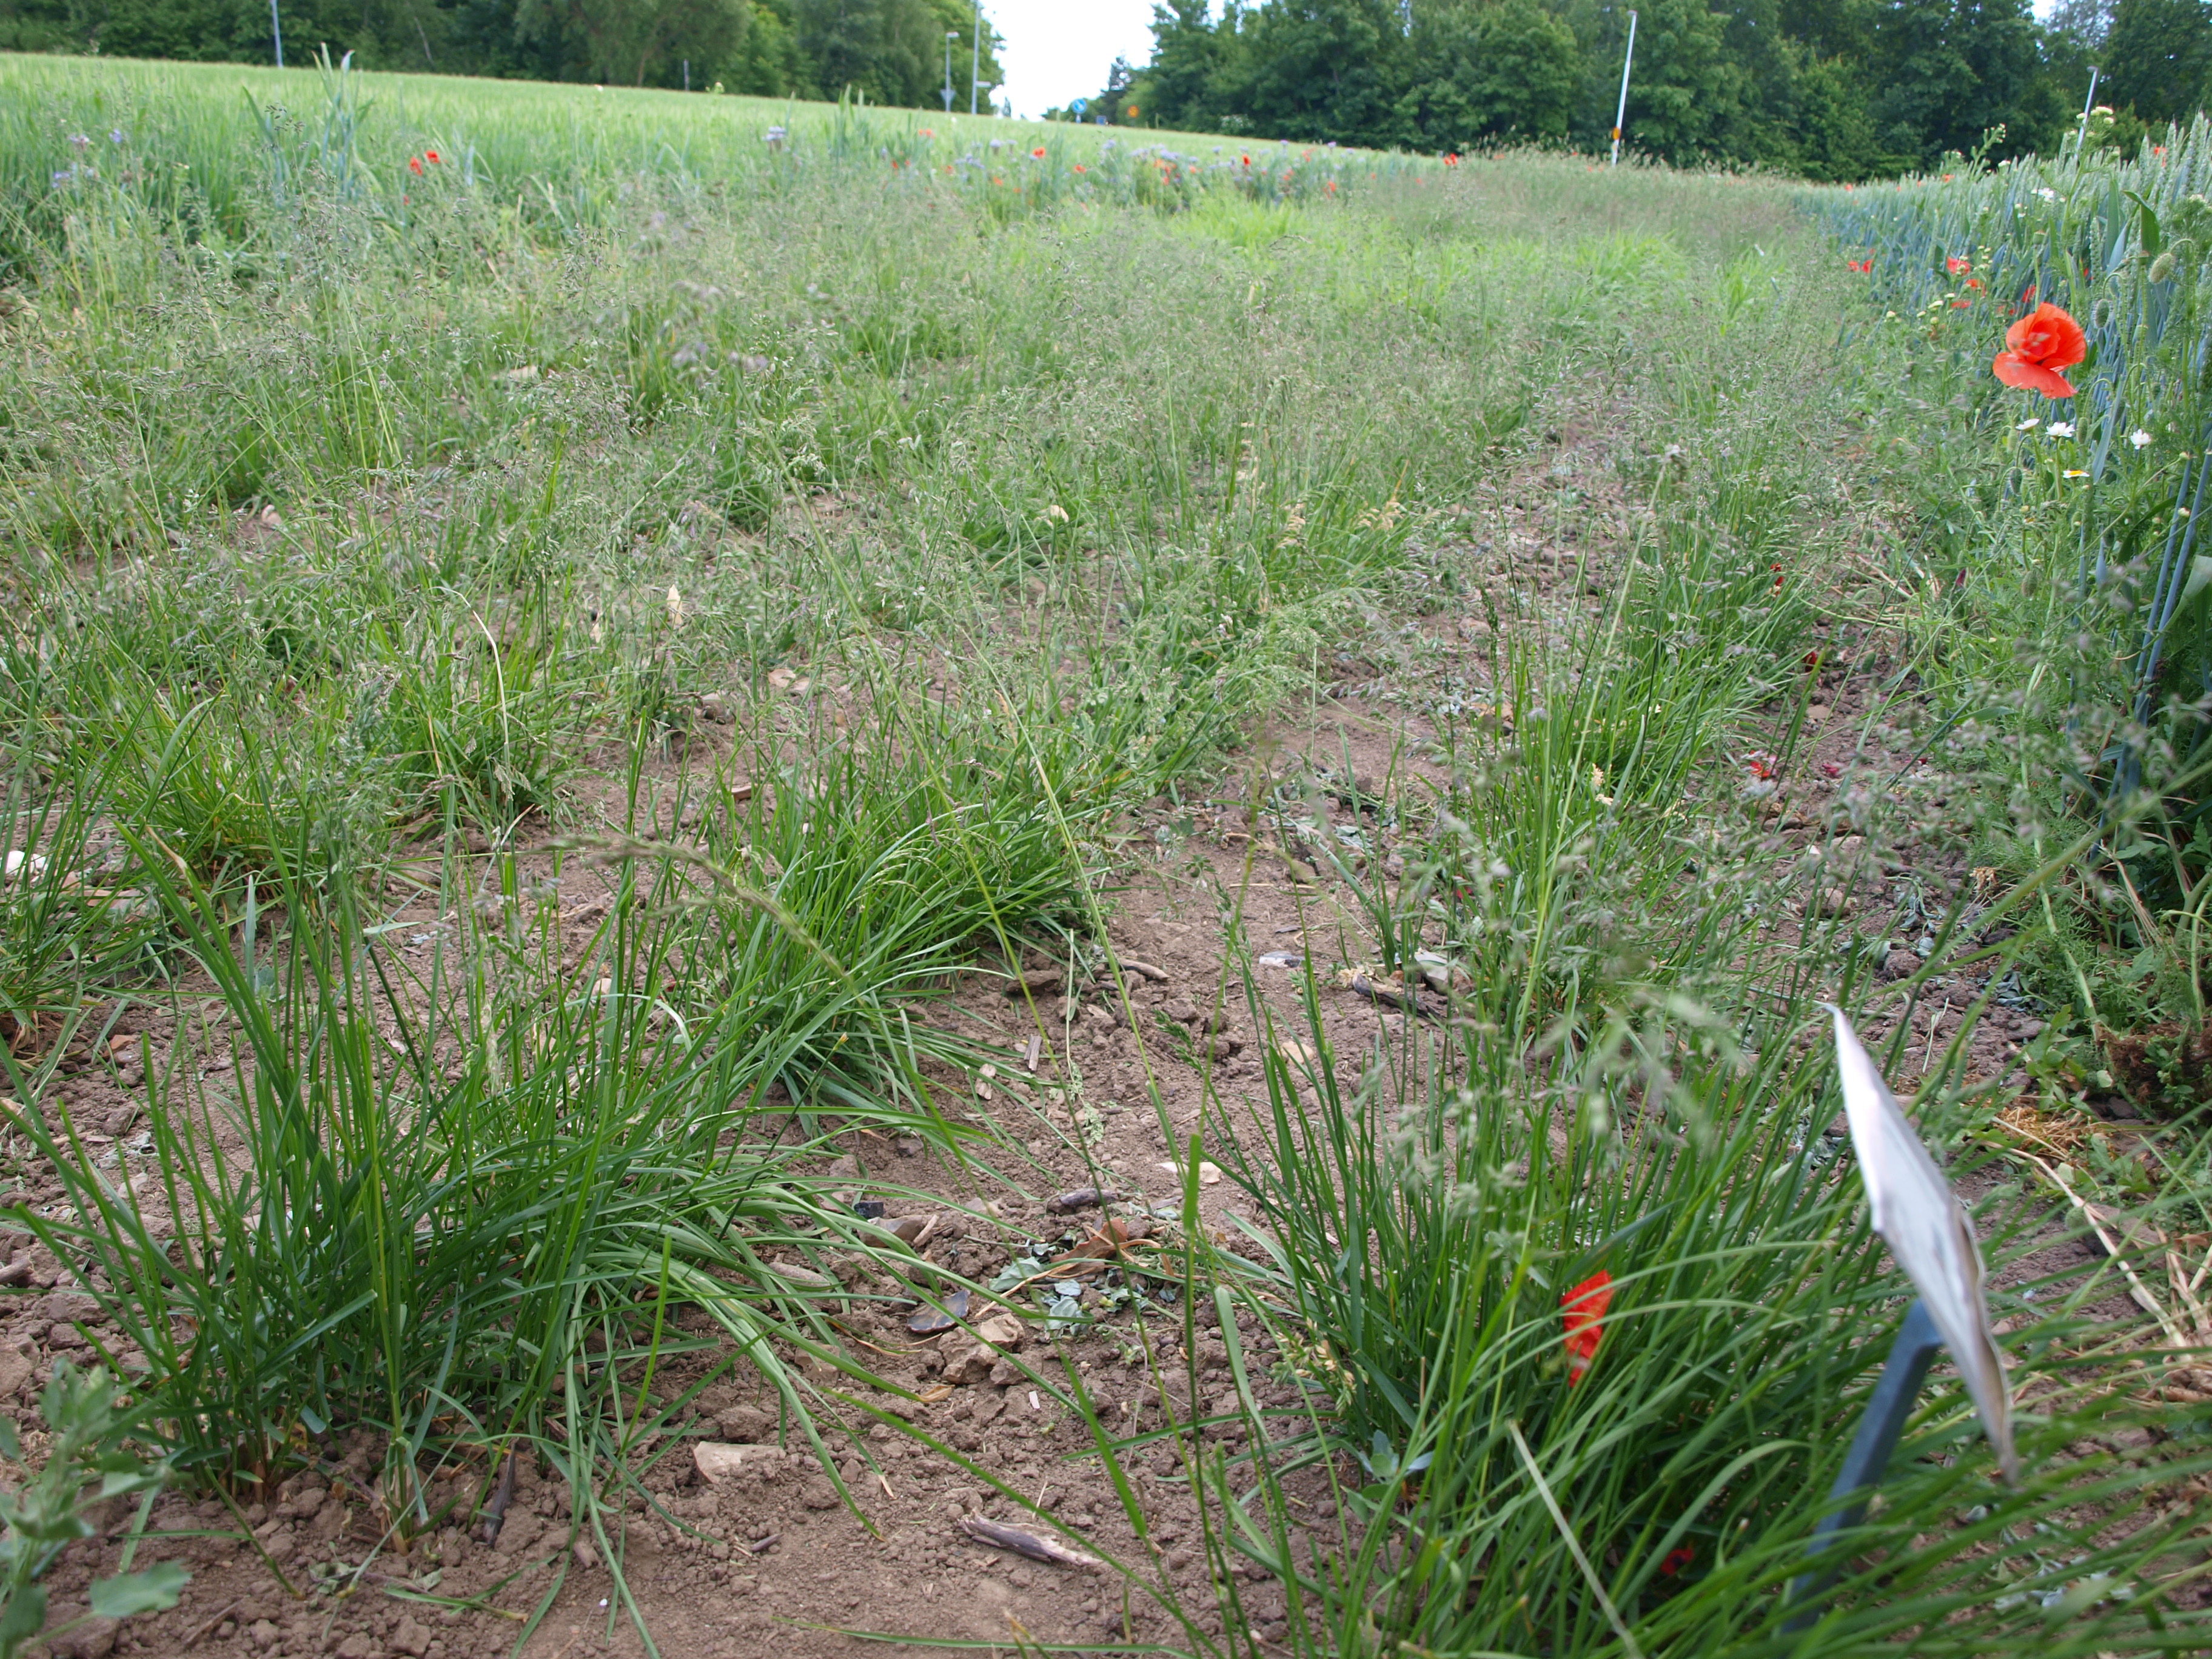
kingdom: Plantae
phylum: Tracheophyta
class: Liliopsida
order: Poales
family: Poaceae
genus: Poa
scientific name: Poa pratensis
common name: Kentucky bluegrass
